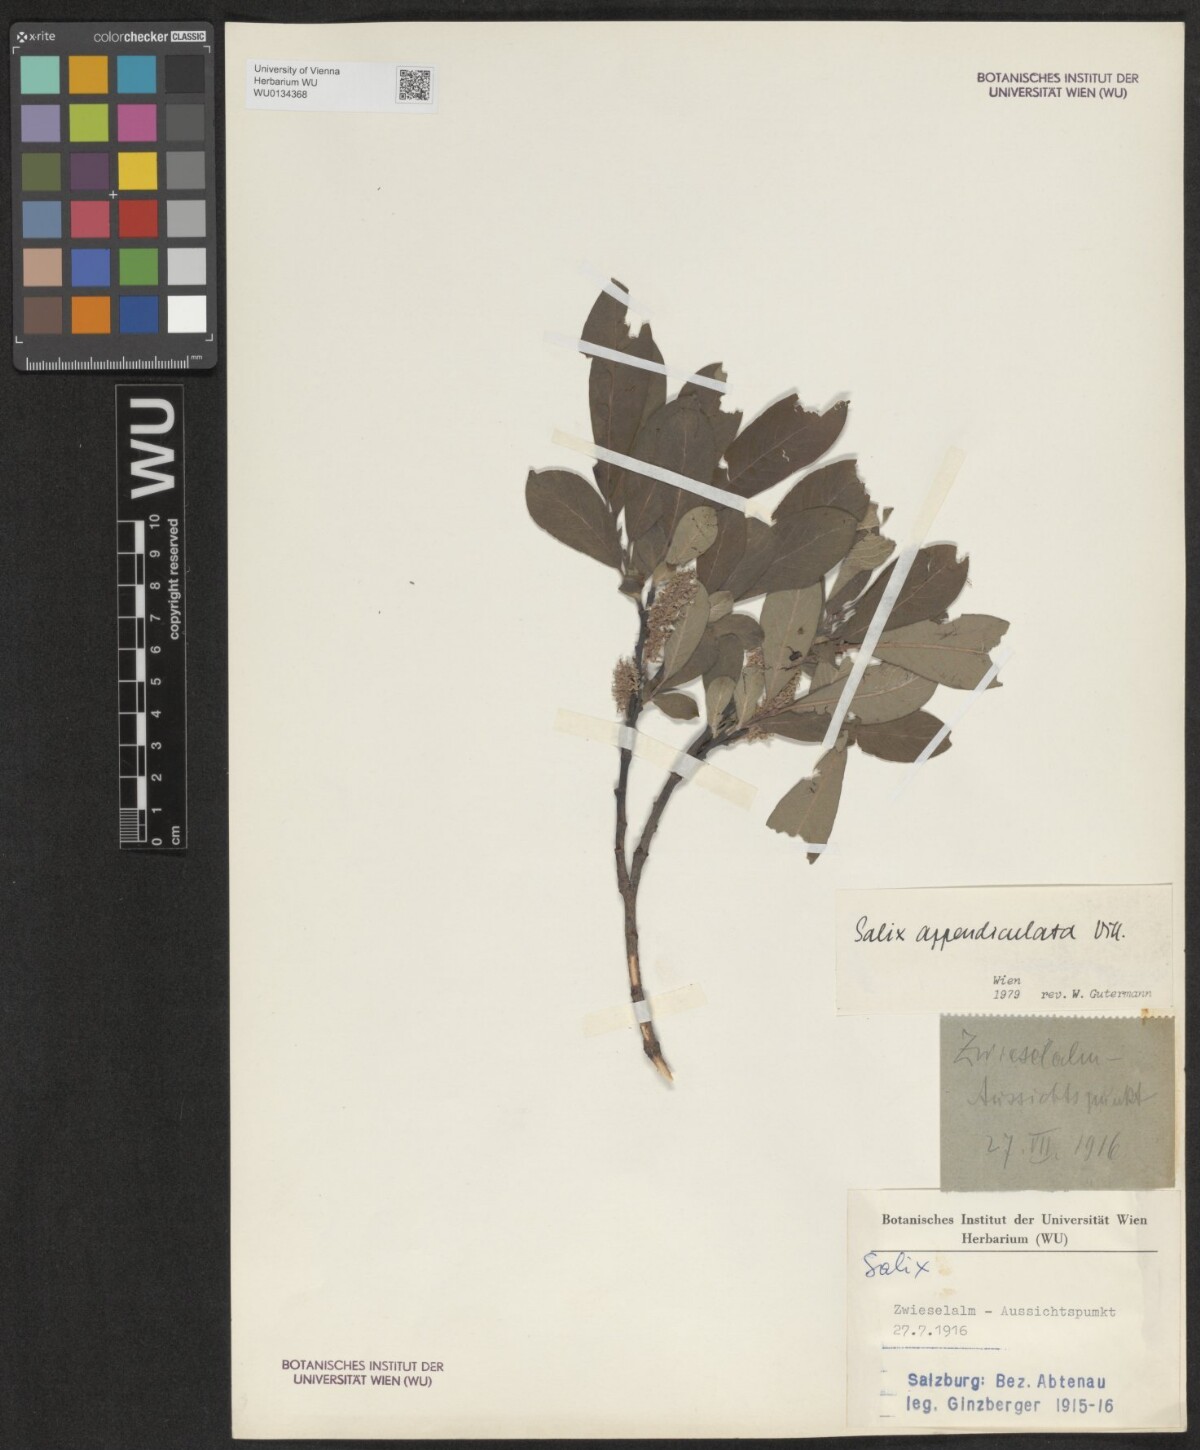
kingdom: Plantae
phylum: Tracheophyta
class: Magnoliopsida
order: Malpighiales
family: Salicaceae
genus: Salix
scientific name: Salix appendiculata
